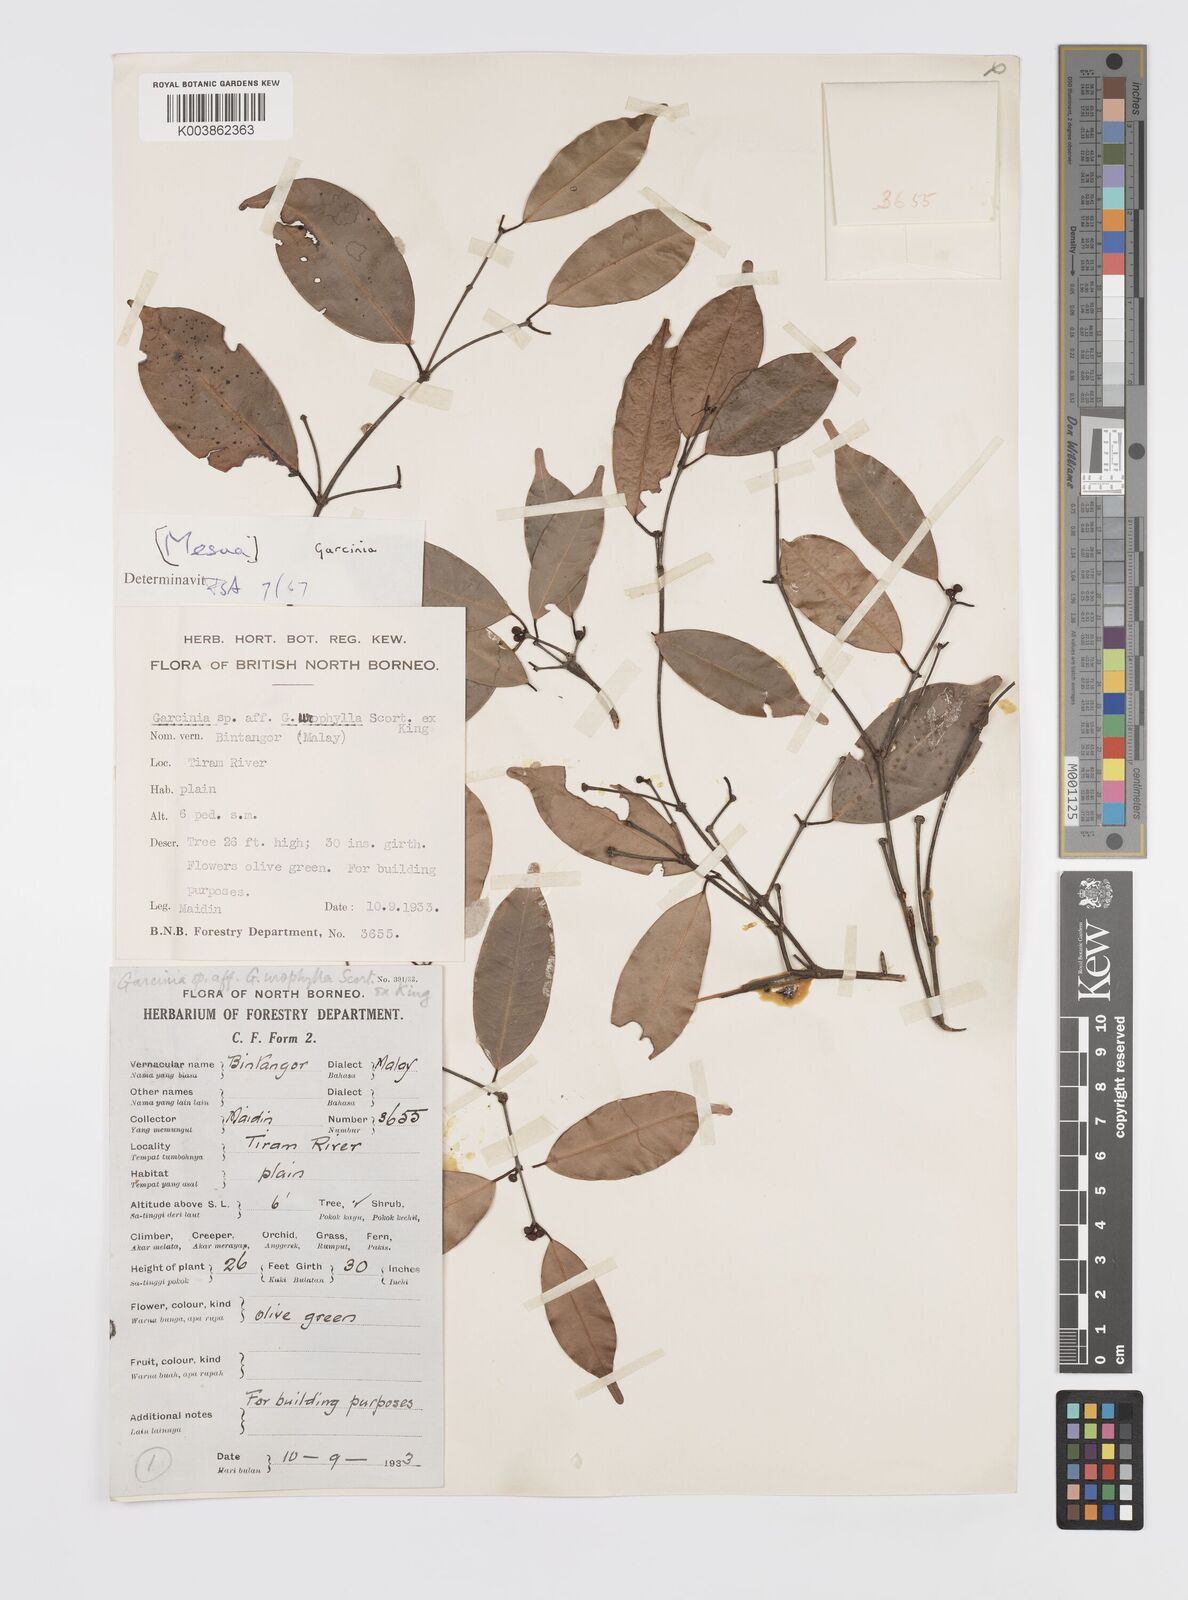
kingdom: Plantae
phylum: Tracheophyta
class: Magnoliopsida
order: Malpighiales
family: Clusiaceae
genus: Garcinia
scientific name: Garcinia venulosa
